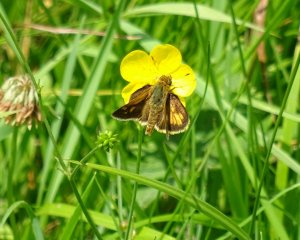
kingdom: Animalia
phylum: Arthropoda
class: Insecta
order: Lepidoptera
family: Hesperiidae
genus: Polites
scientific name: Polites
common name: Long Dash Skipper
